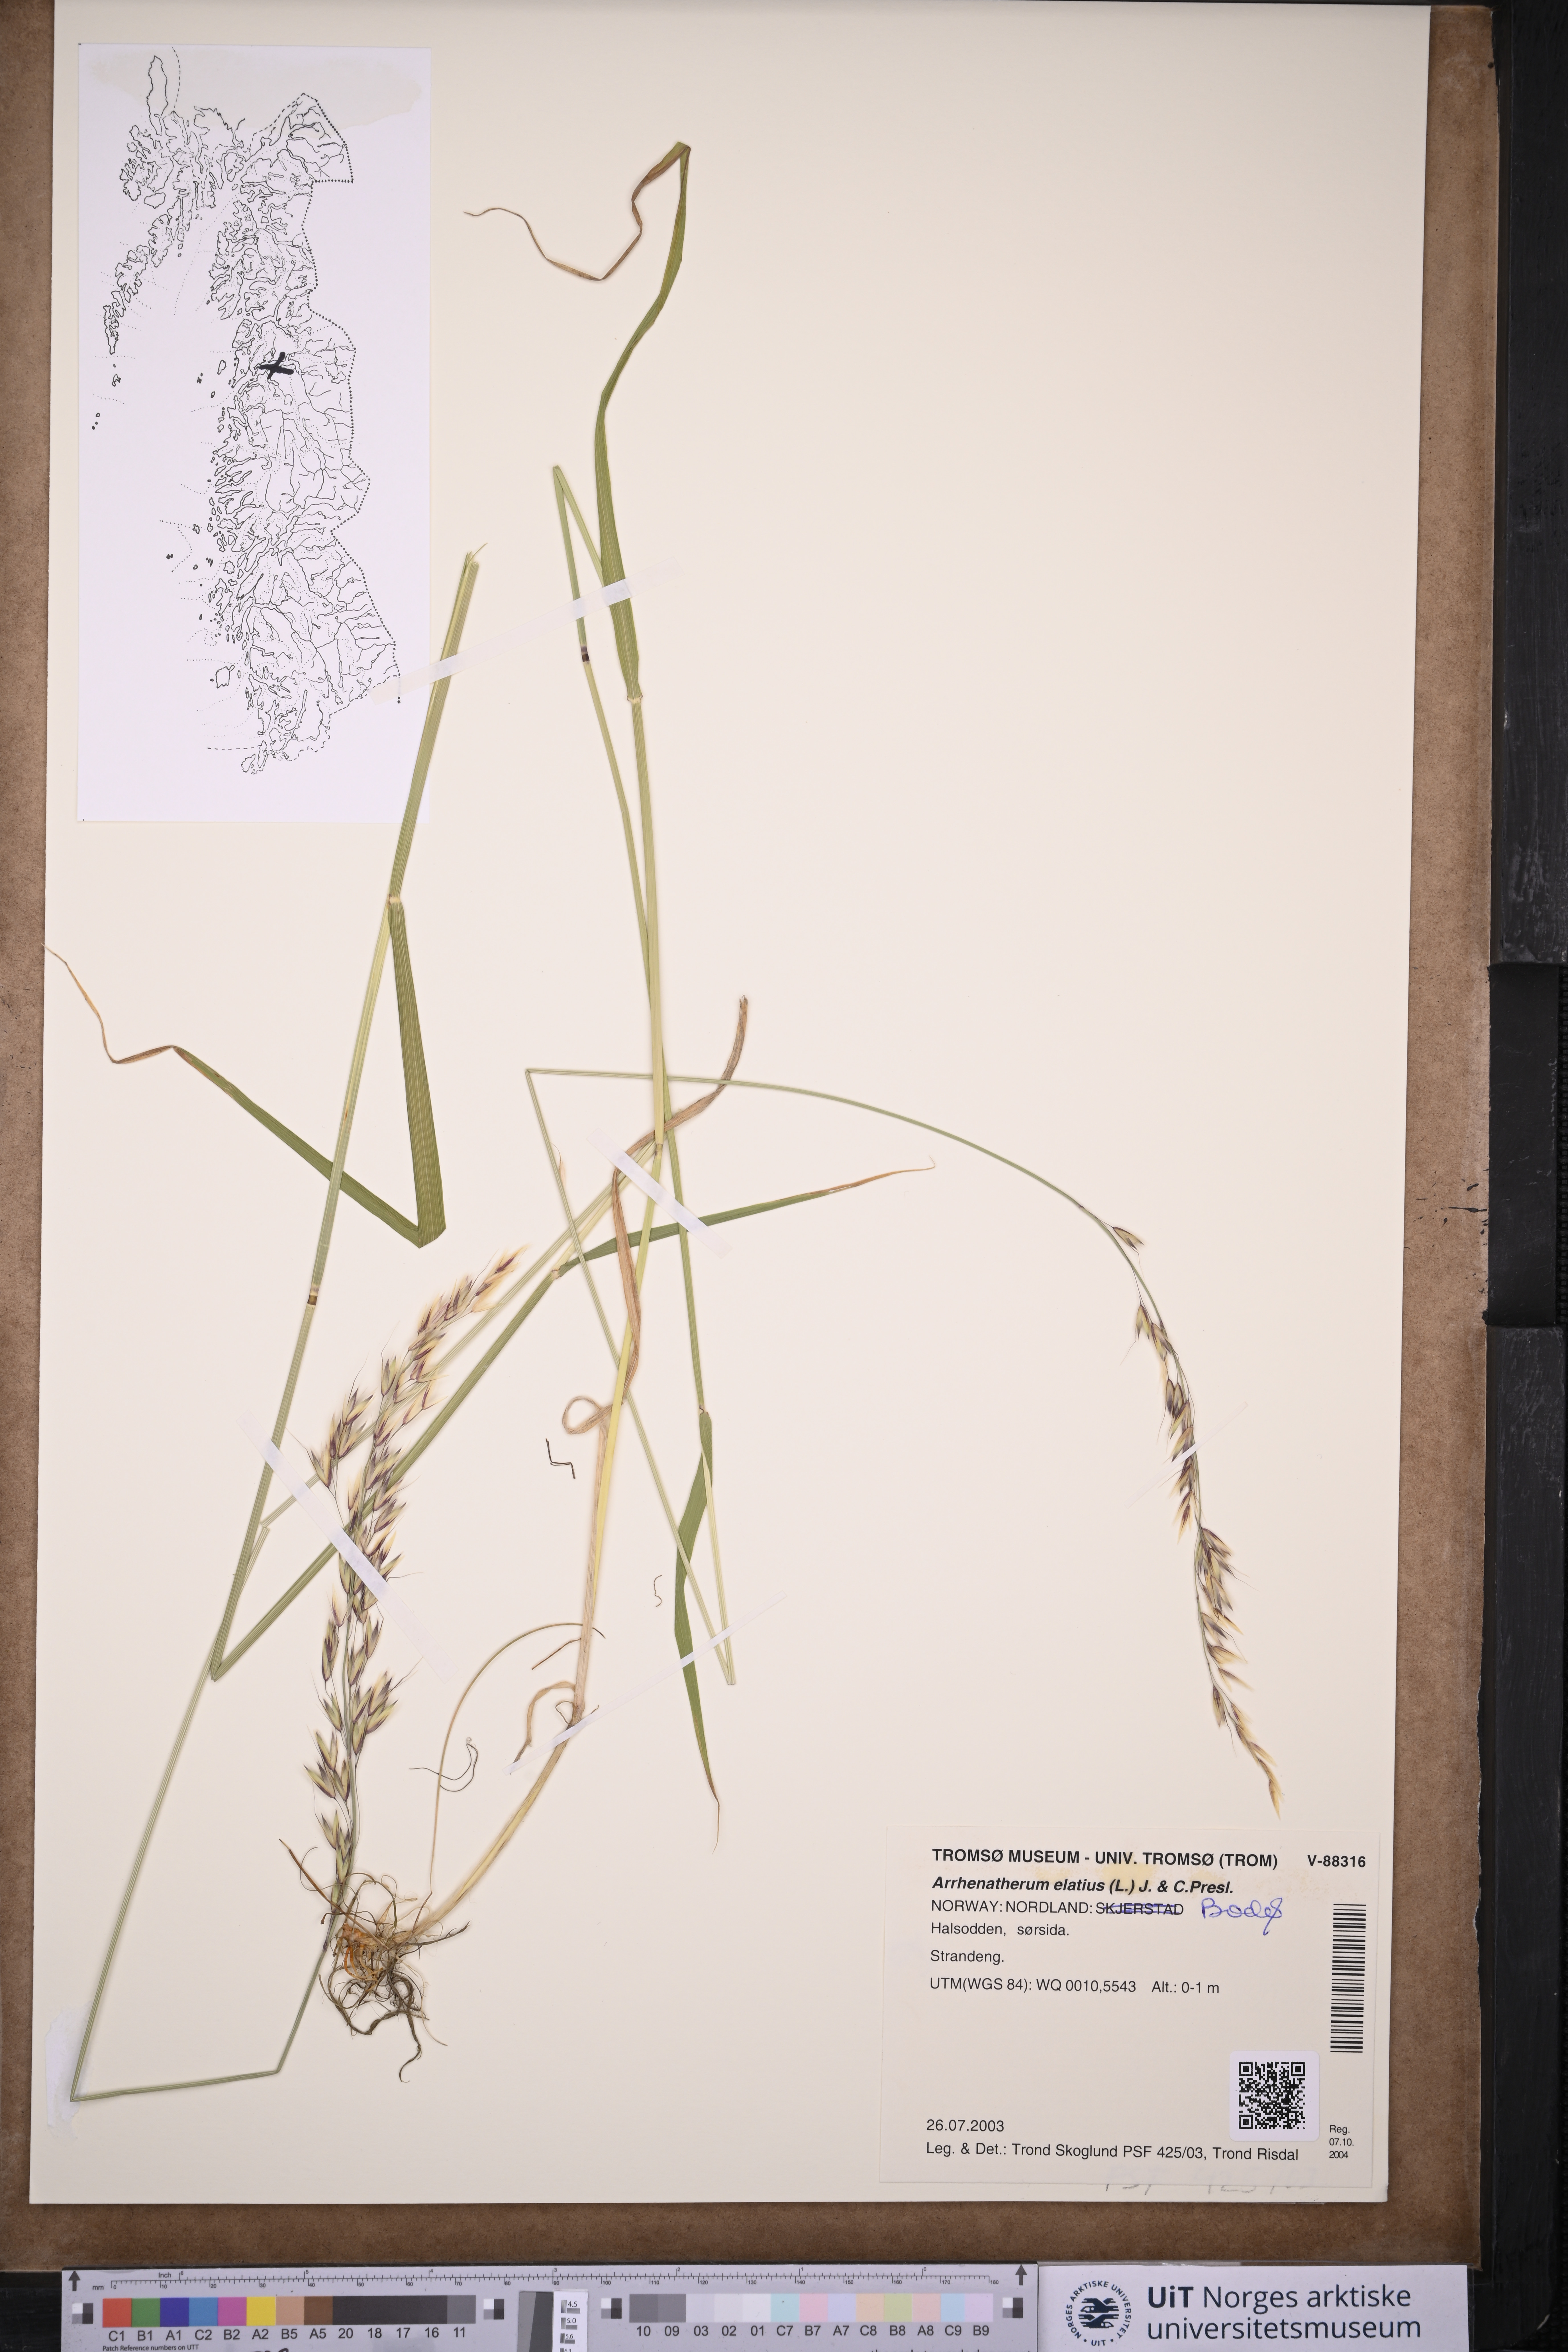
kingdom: Plantae
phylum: Tracheophyta
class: Liliopsida
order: Poales
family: Poaceae
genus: Arrhenatherum
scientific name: Arrhenatherum elatius
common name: Tall oatgrass
